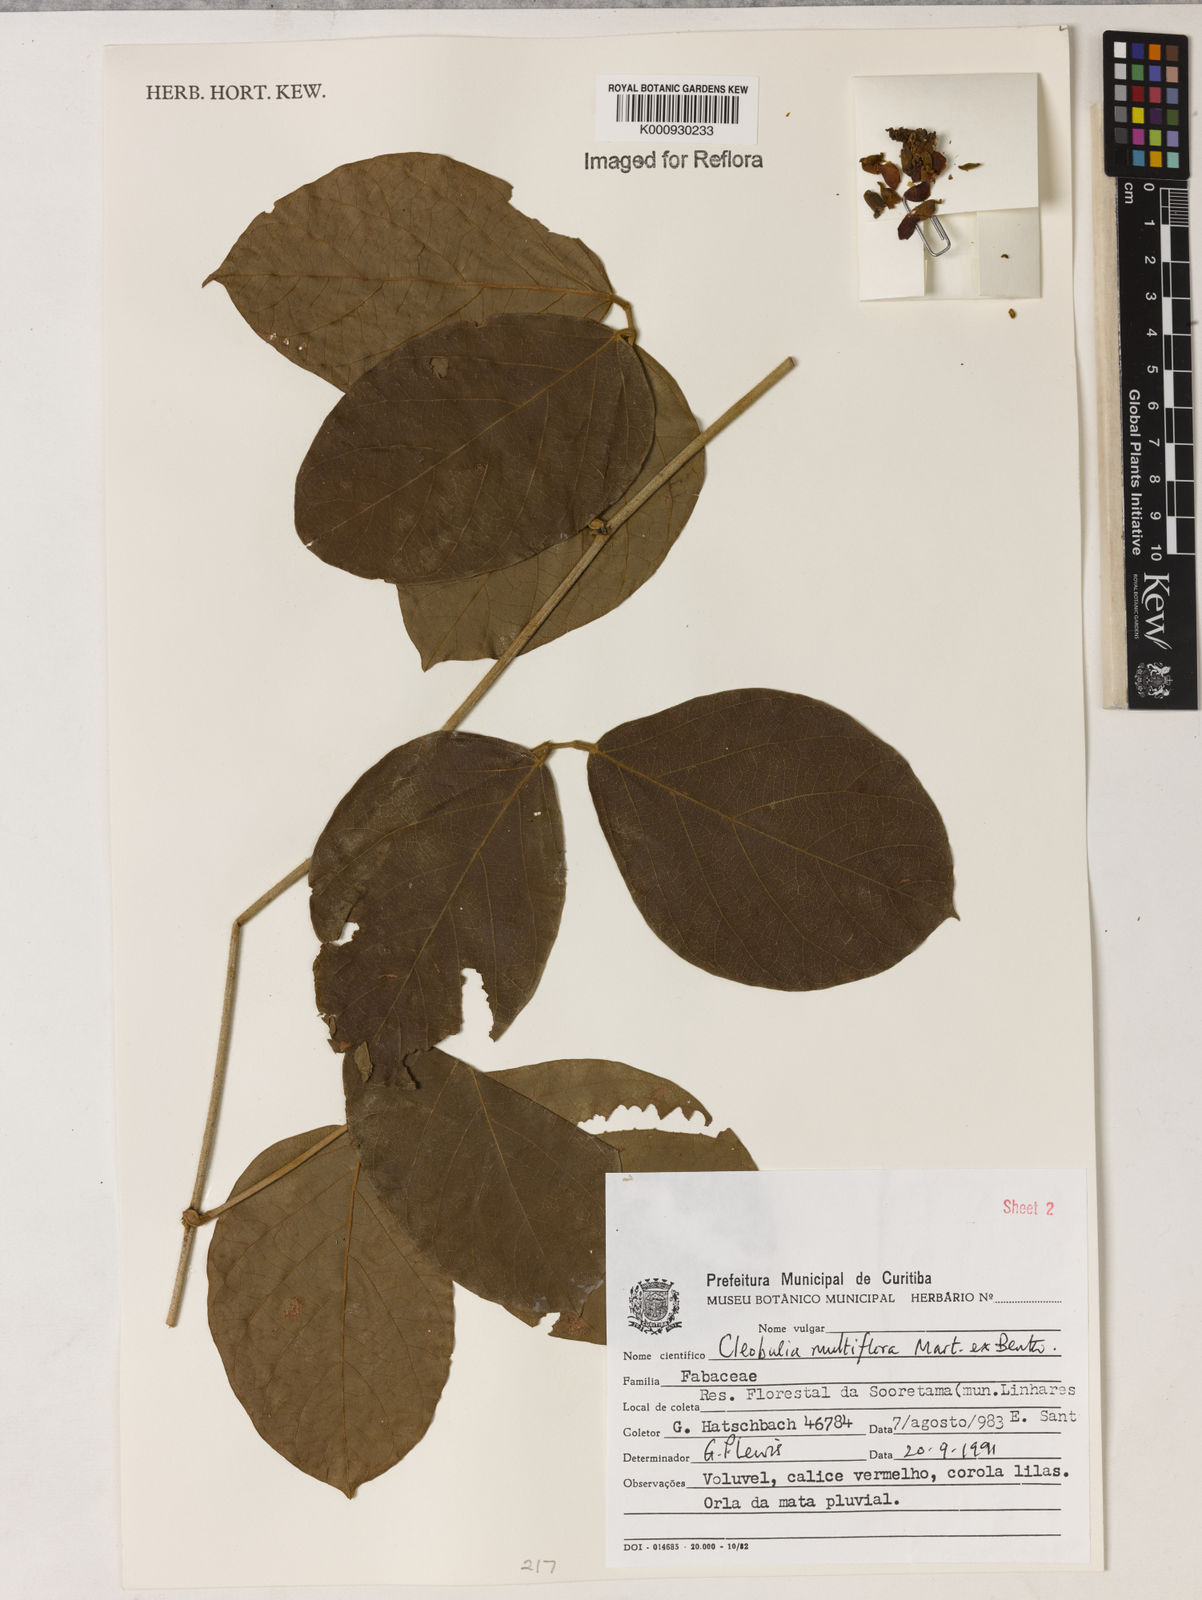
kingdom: Plantae
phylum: Tracheophyta
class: Magnoliopsida
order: Fabales
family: Fabaceae
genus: Cleobulia
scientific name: Cleobulia coccinea
